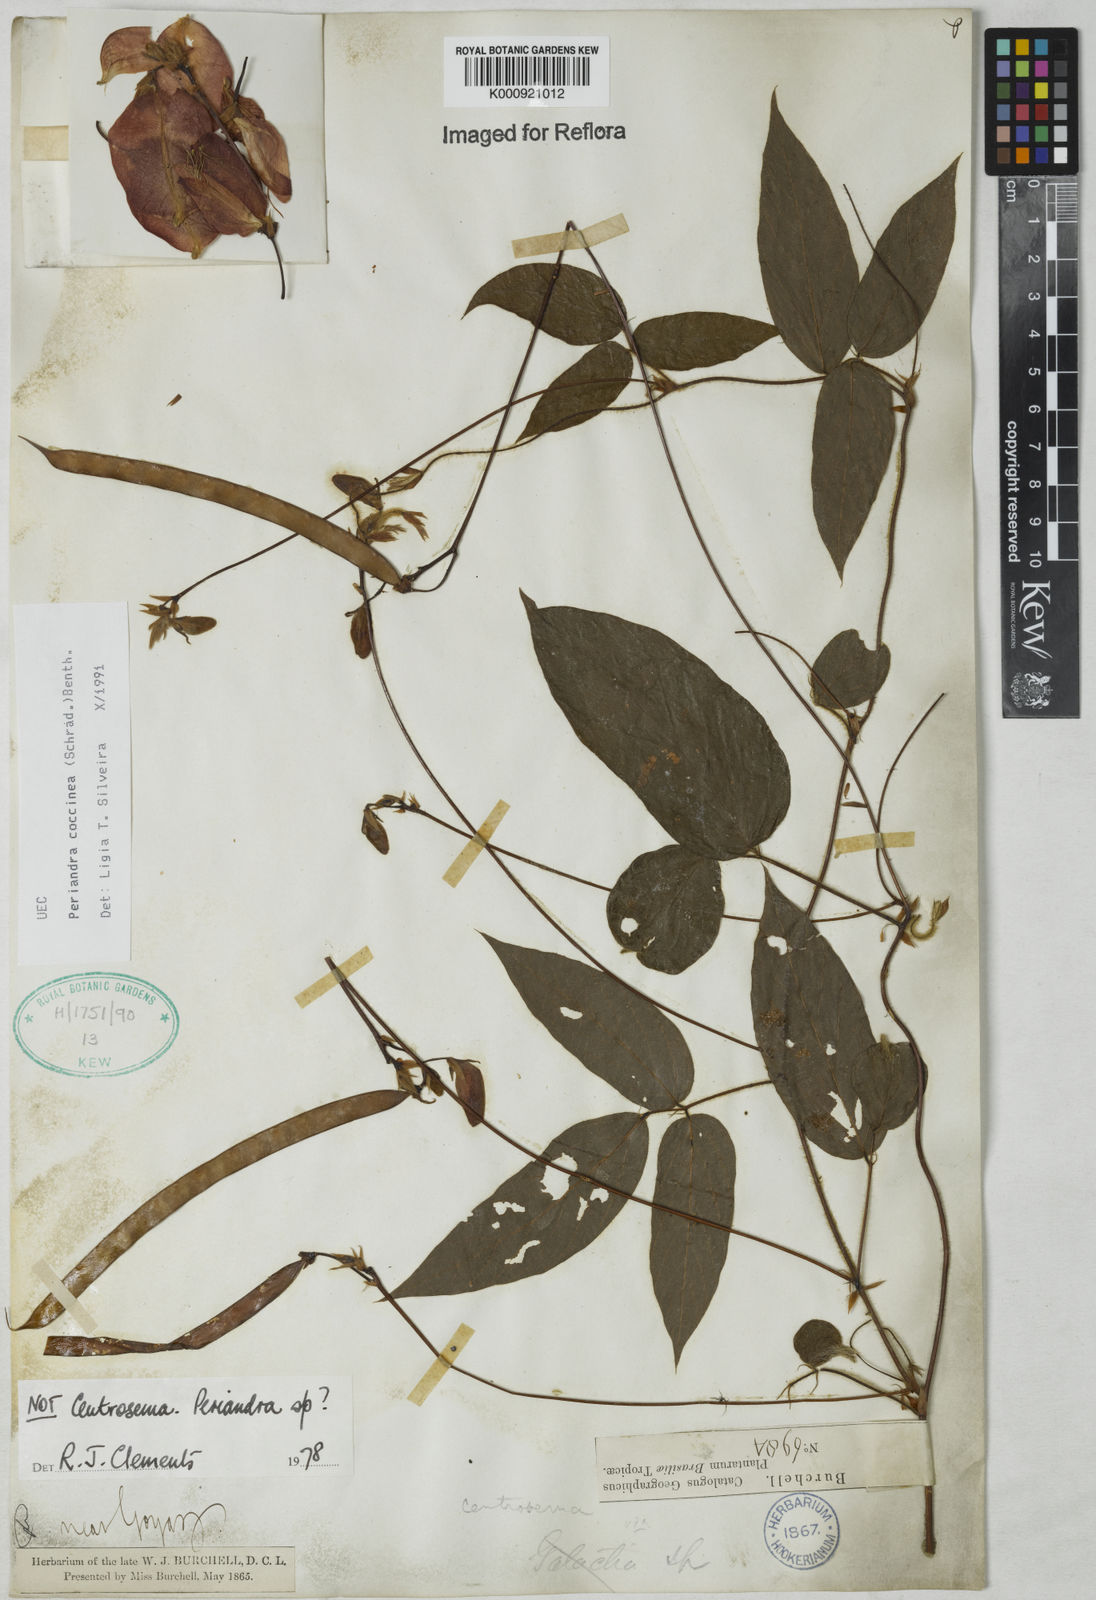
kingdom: Plantae
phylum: Tracheophyta
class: Magnoliopsida
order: Fabales
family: Fabaceae
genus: Periandra
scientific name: Periandra coccinea
